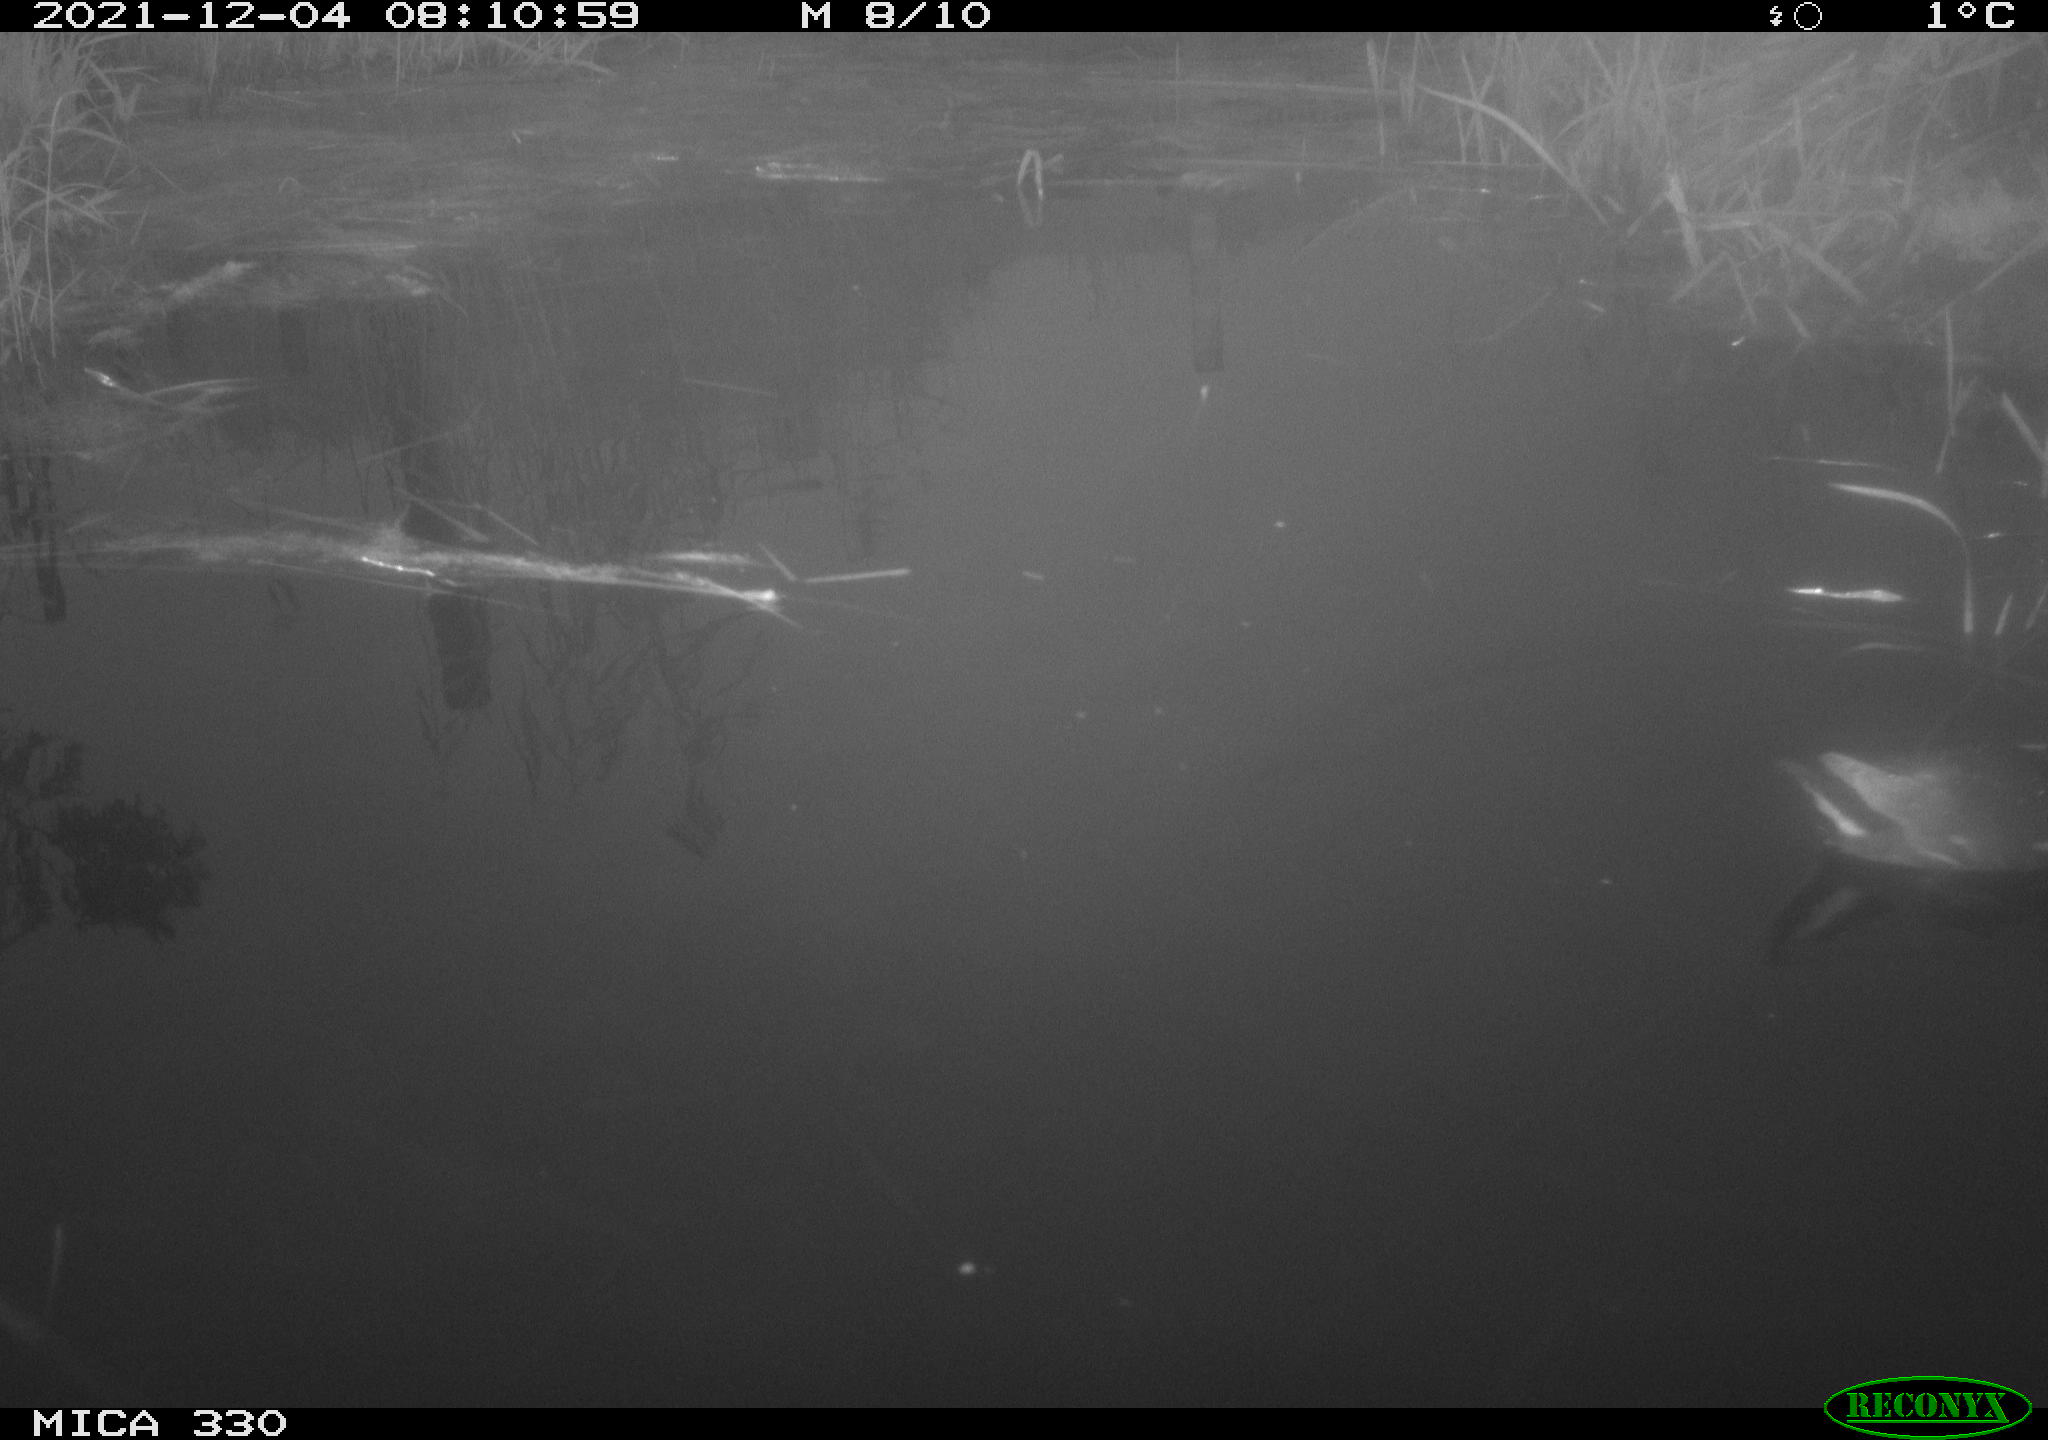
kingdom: Animalia
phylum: Chordata
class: Aves
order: Gruiformes
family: Rallidae
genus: Gallinula
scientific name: Gallinula chloropus
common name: Common moorhen
